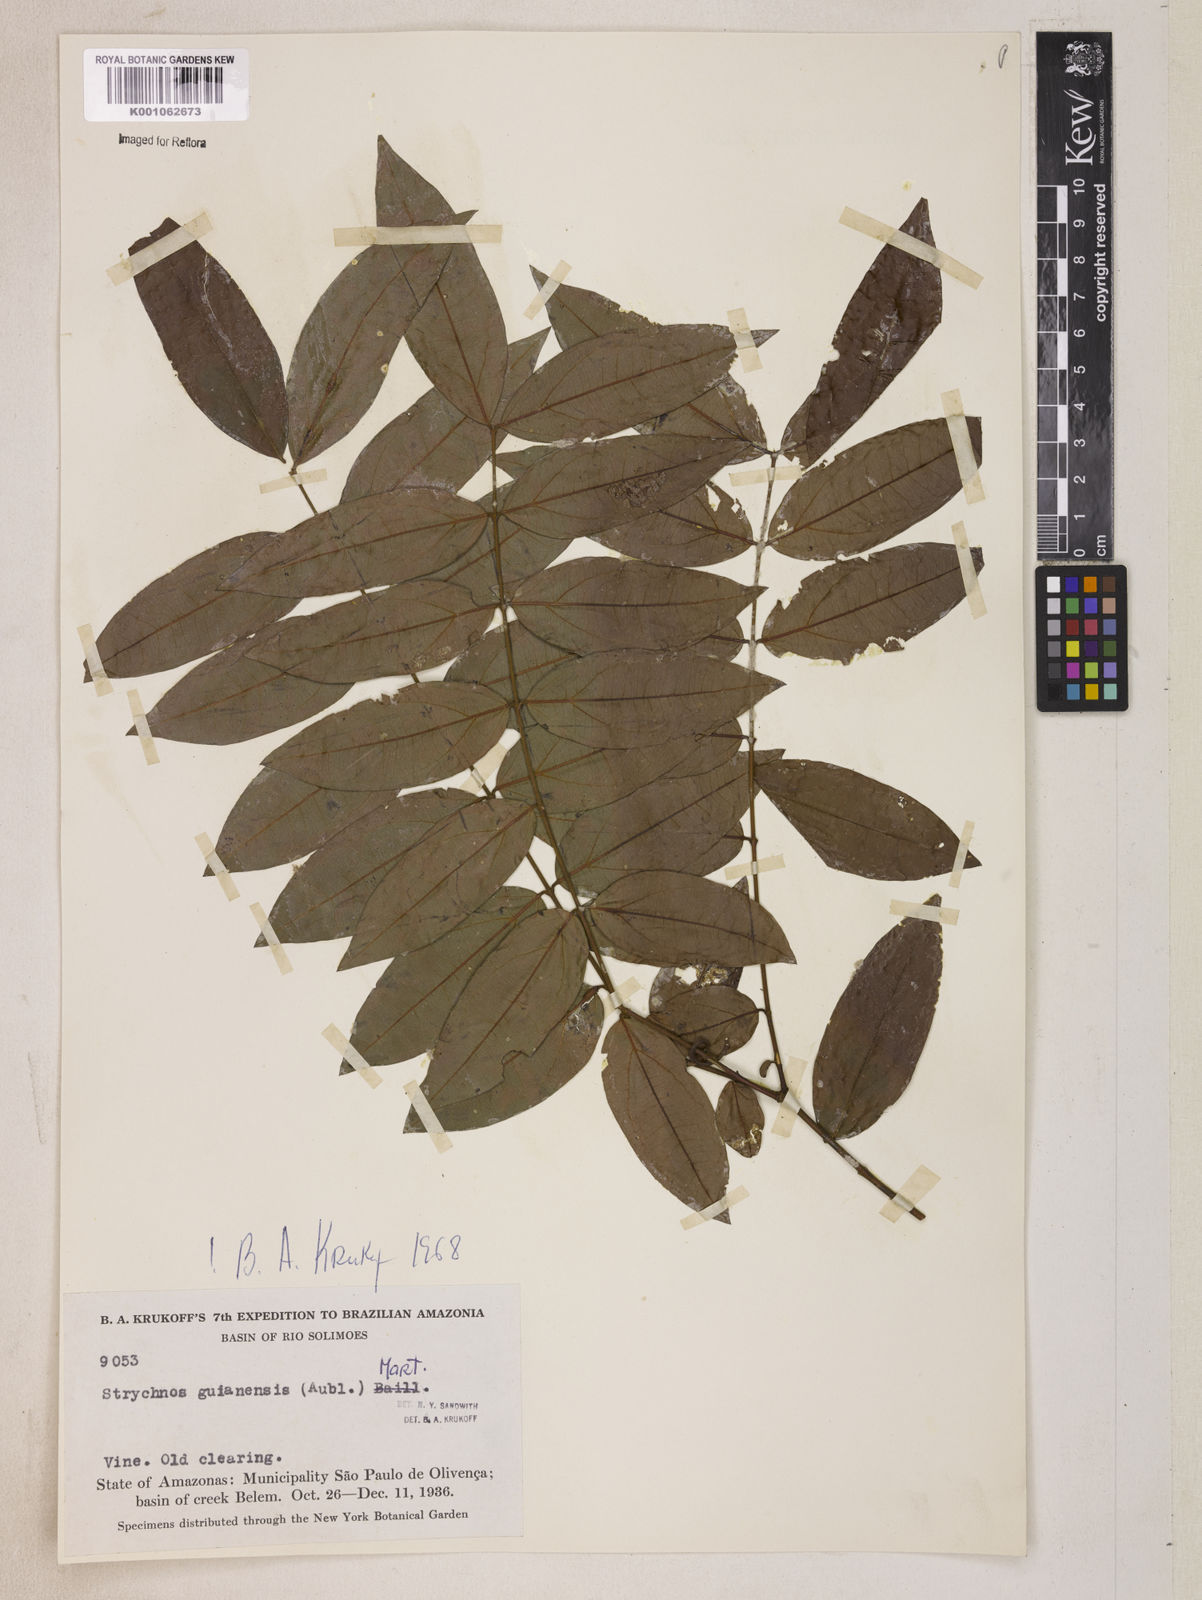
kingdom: Plantae
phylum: Tracheophyta
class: Magnoliopsida
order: Gentianales
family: Loganiaceae
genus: Strychnos
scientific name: Strychnos guianensis
